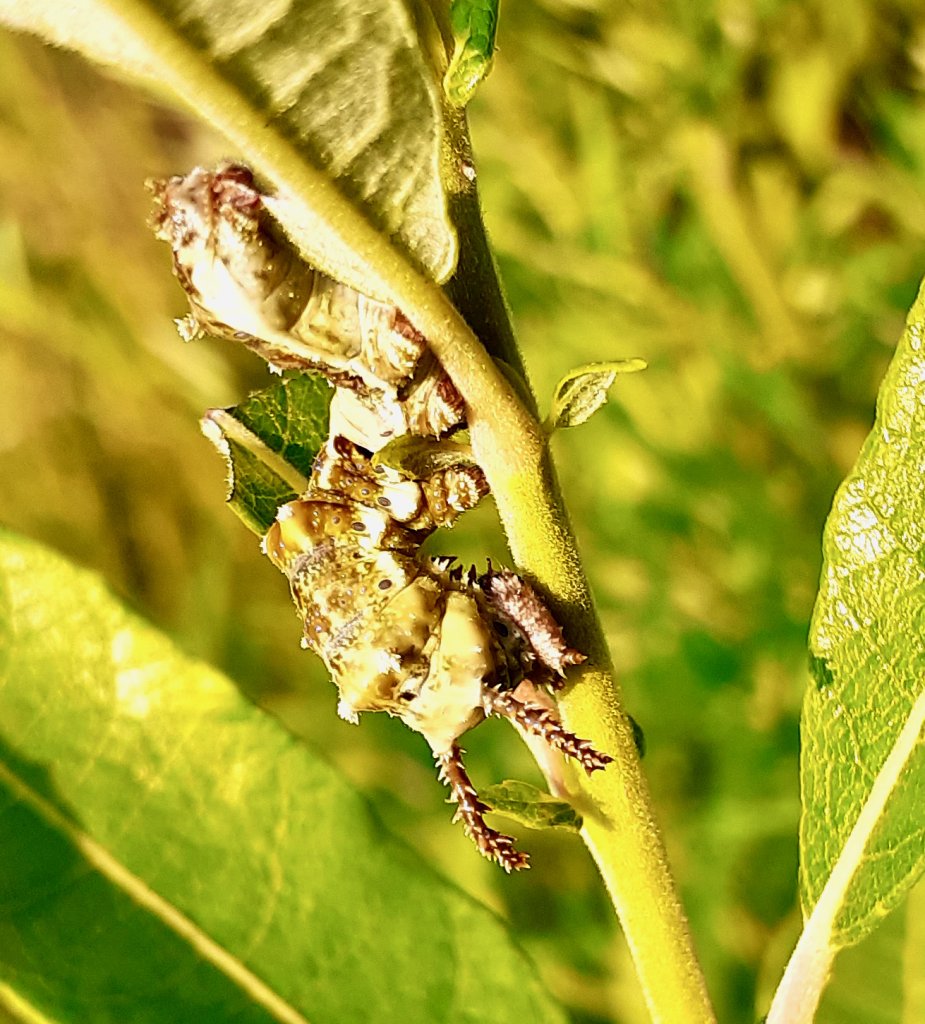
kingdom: Animalia
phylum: Arthropoda
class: Insecta
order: Lepidoptera
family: Nymphalidae
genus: Limenitis
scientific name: Limenitis archippus
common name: Viceroy
